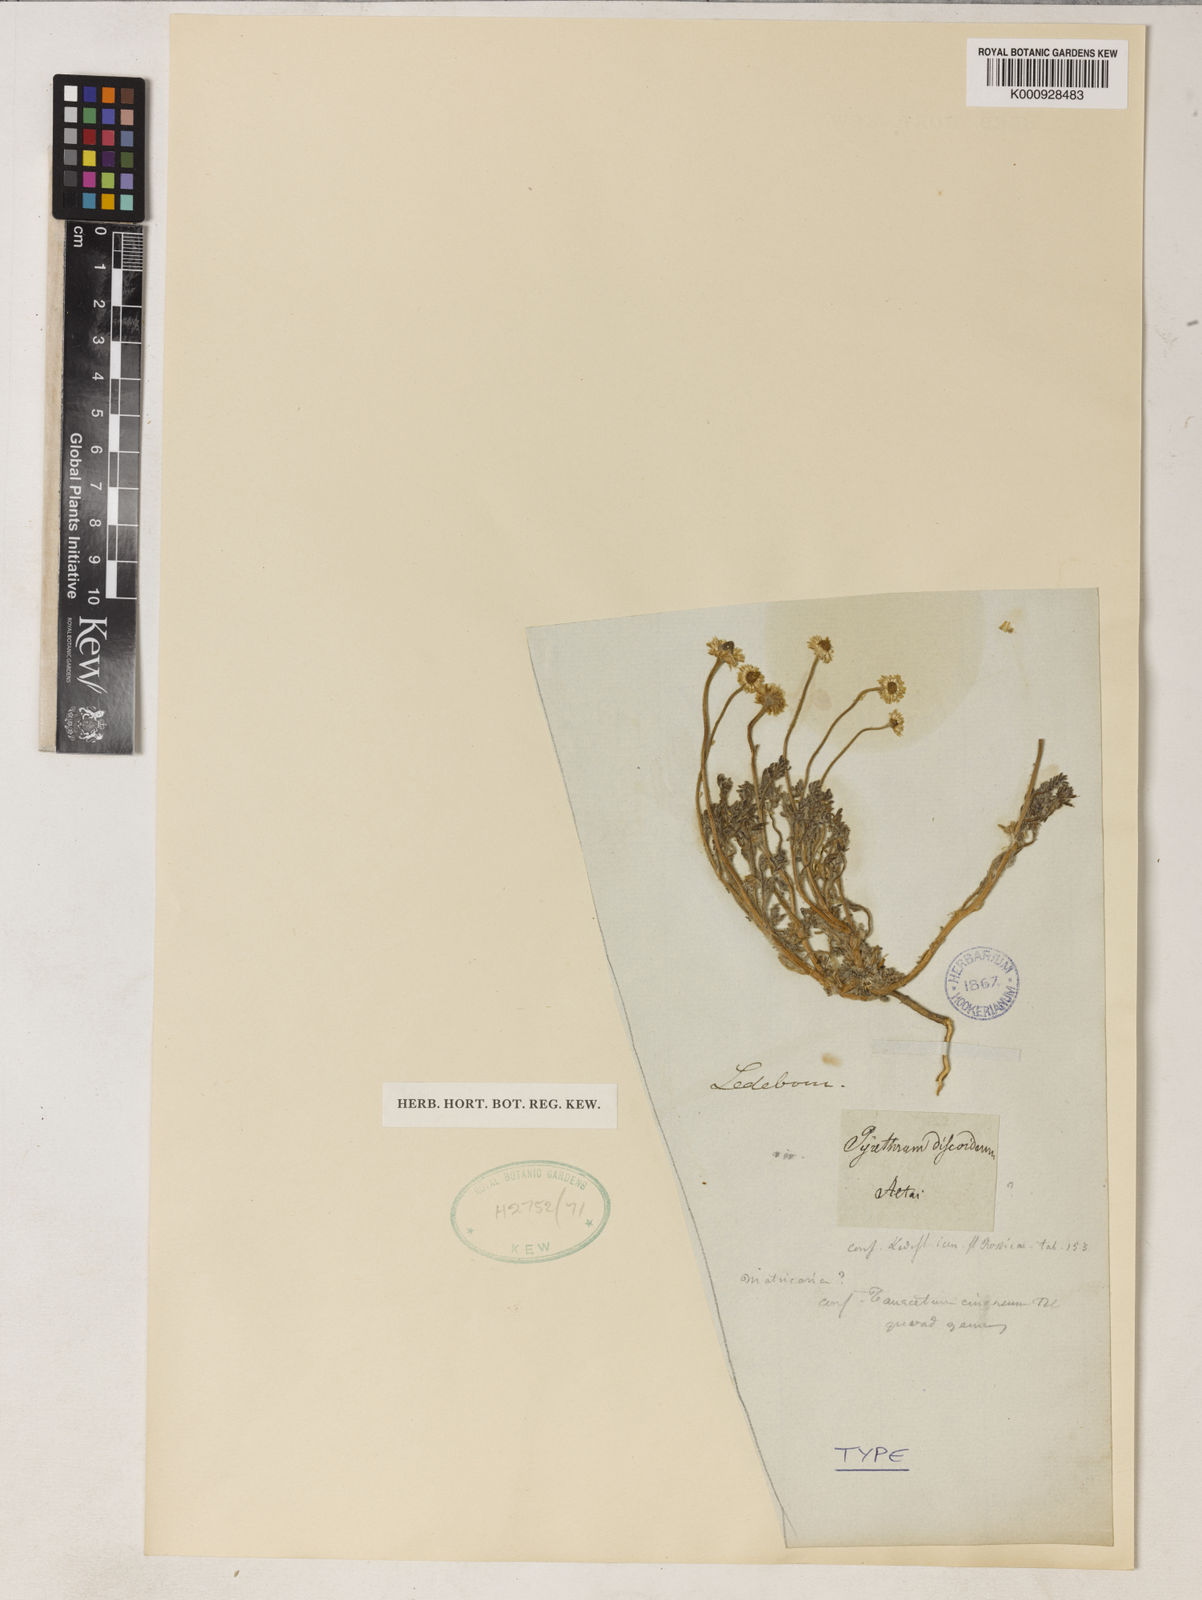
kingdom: Plantae
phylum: Tracheophyta
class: Magnoliopsida
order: Asterales
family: Asteraceae
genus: Matricaria
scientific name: Matricaria discoidea
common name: Disc mayweed
